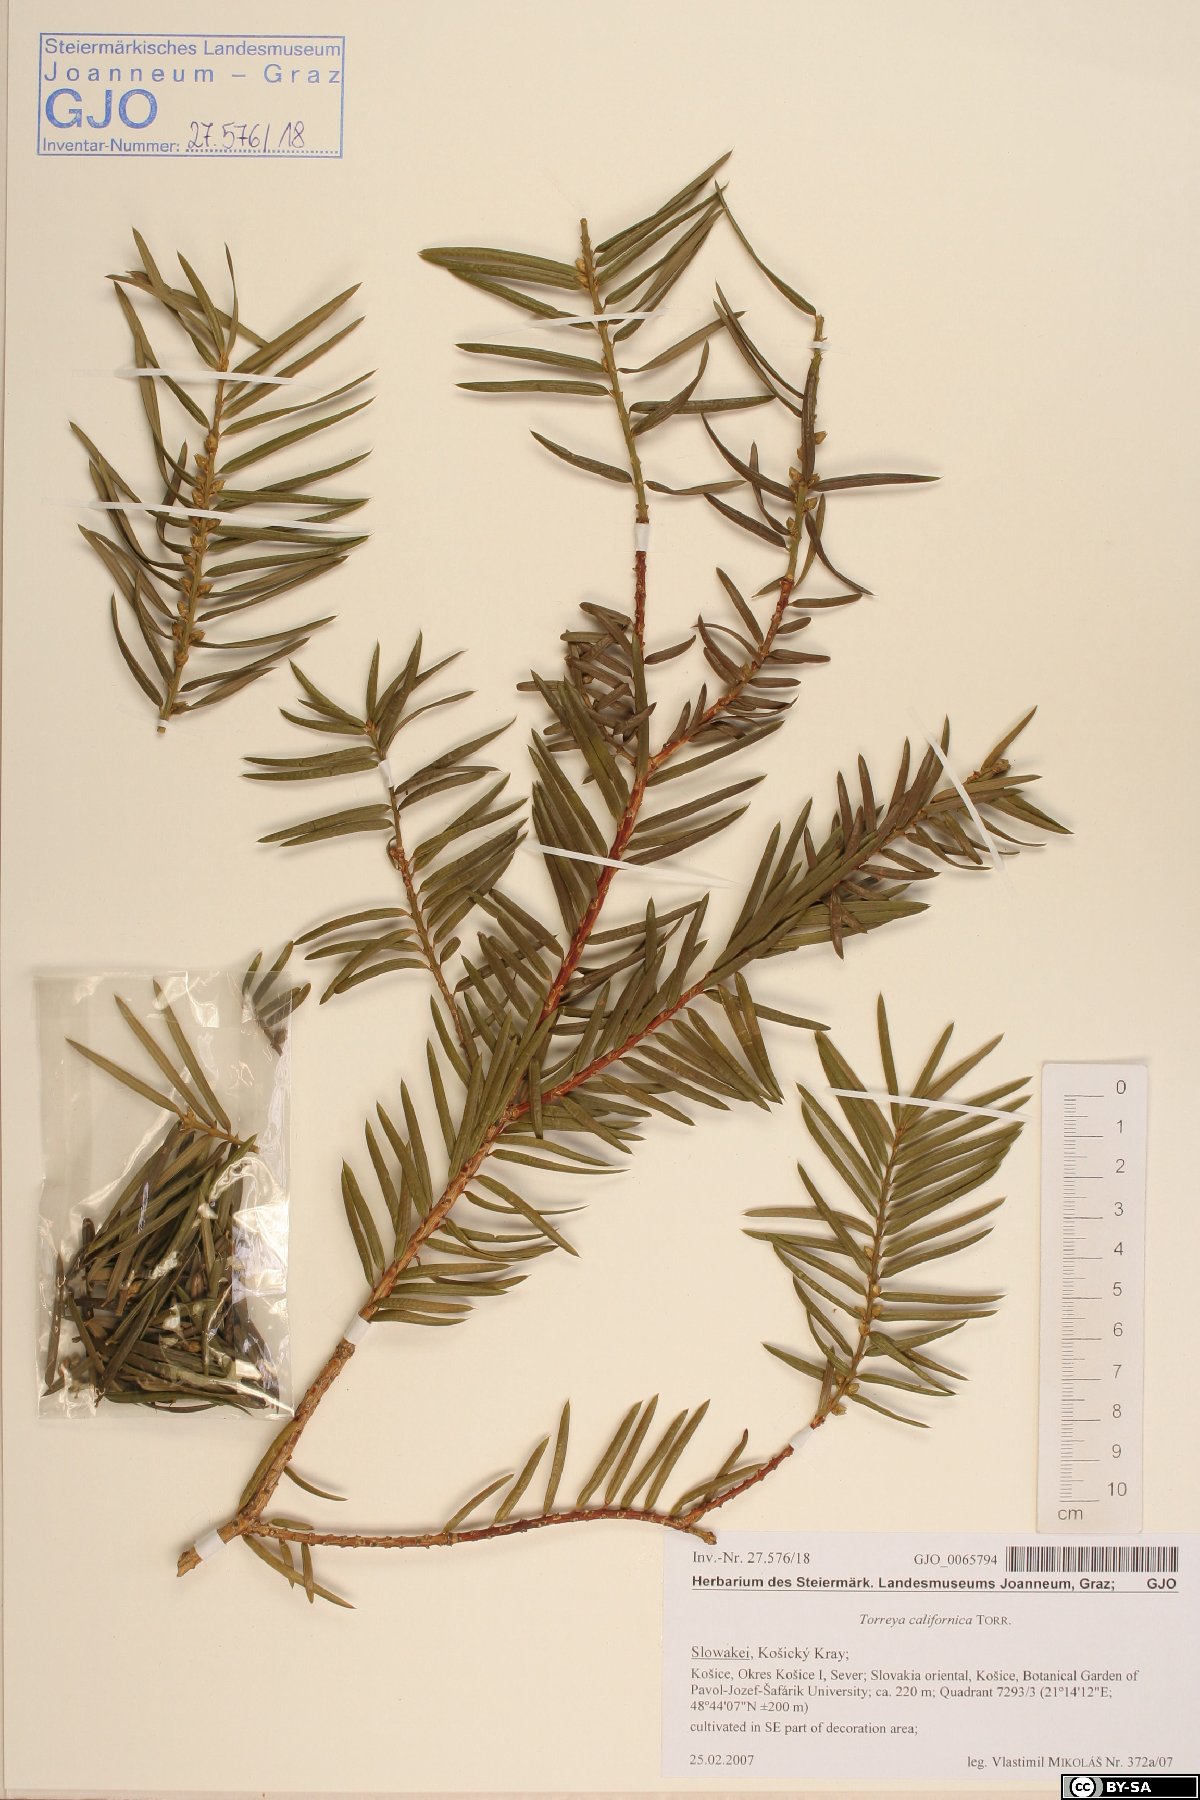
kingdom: Plantae
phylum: Tracheophyta
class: Pinopsida
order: Pinales
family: Taxaceae
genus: Torreya
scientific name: Torreya californica
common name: California torreya
